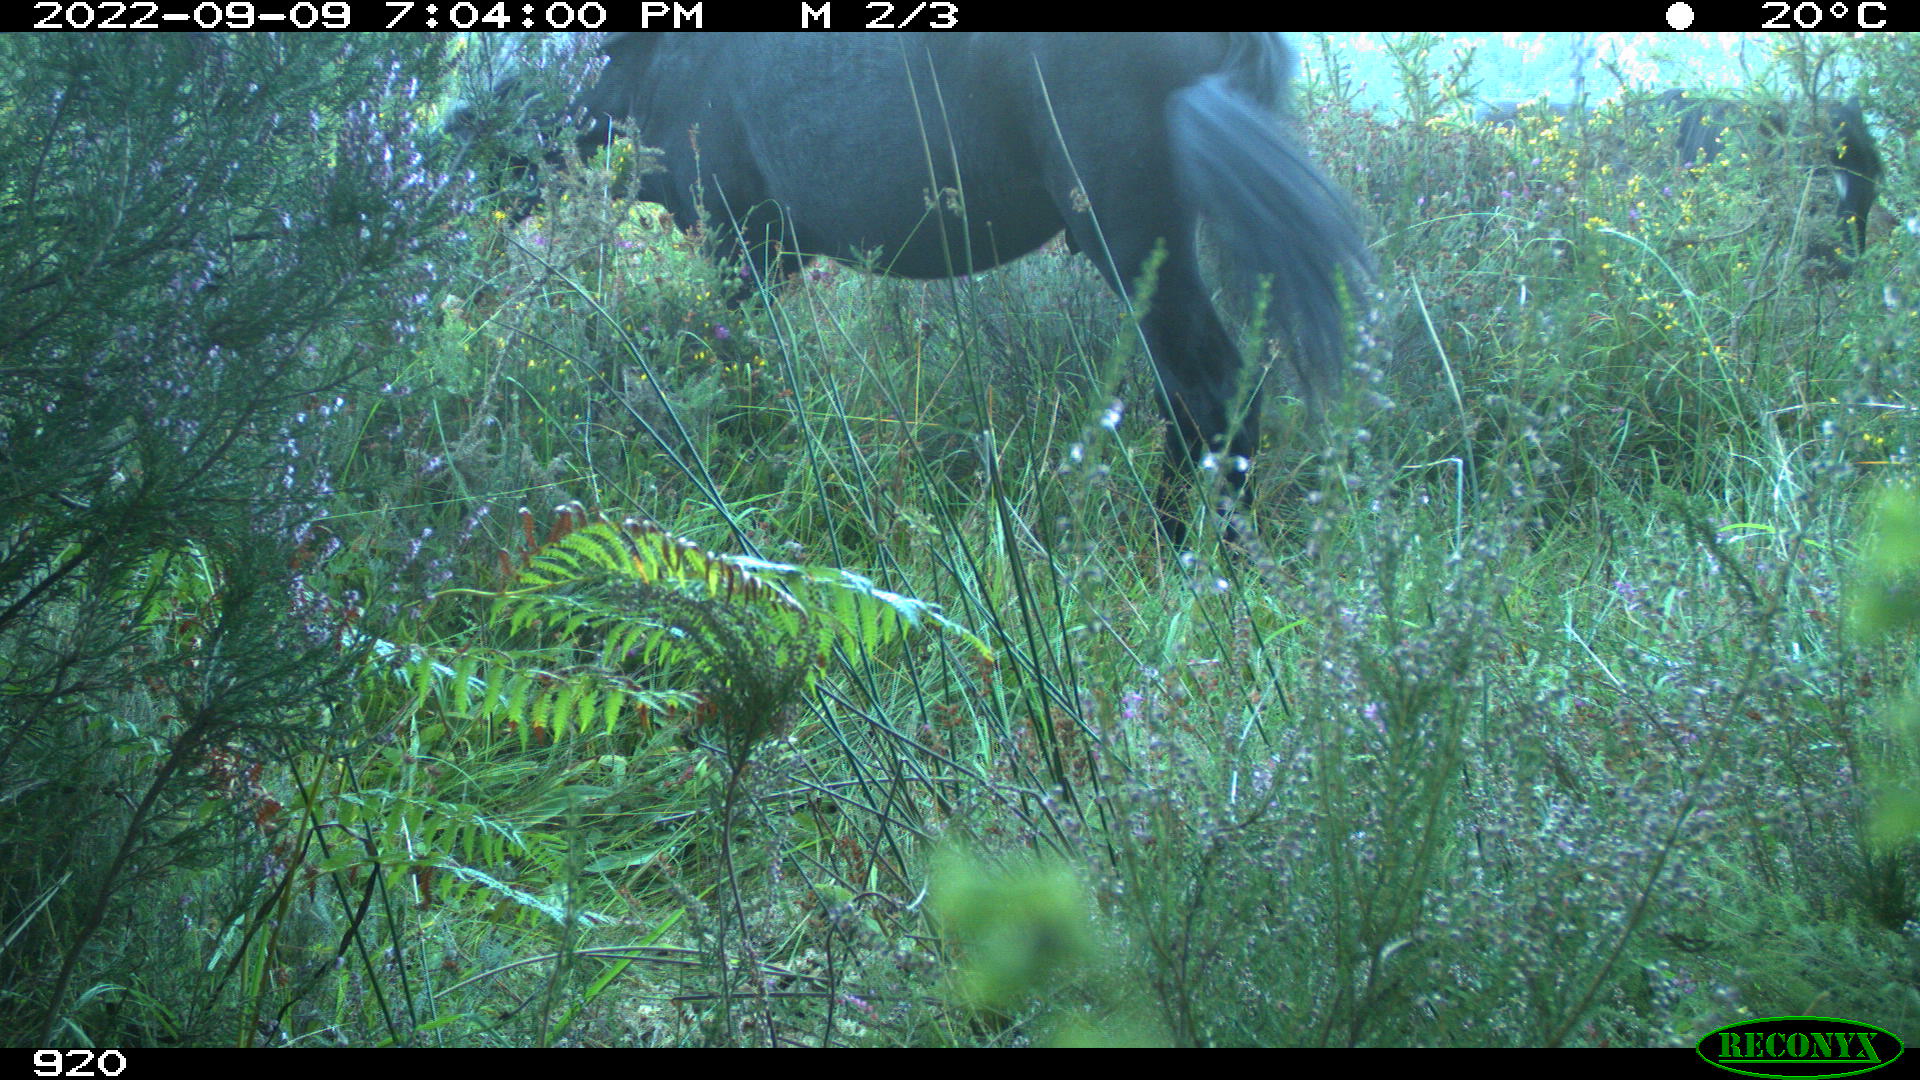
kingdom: Animalia
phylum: Chordata
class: Mammalia
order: Perissodactyla
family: Equidae
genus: Equus
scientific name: Equus caballus
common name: Horse
